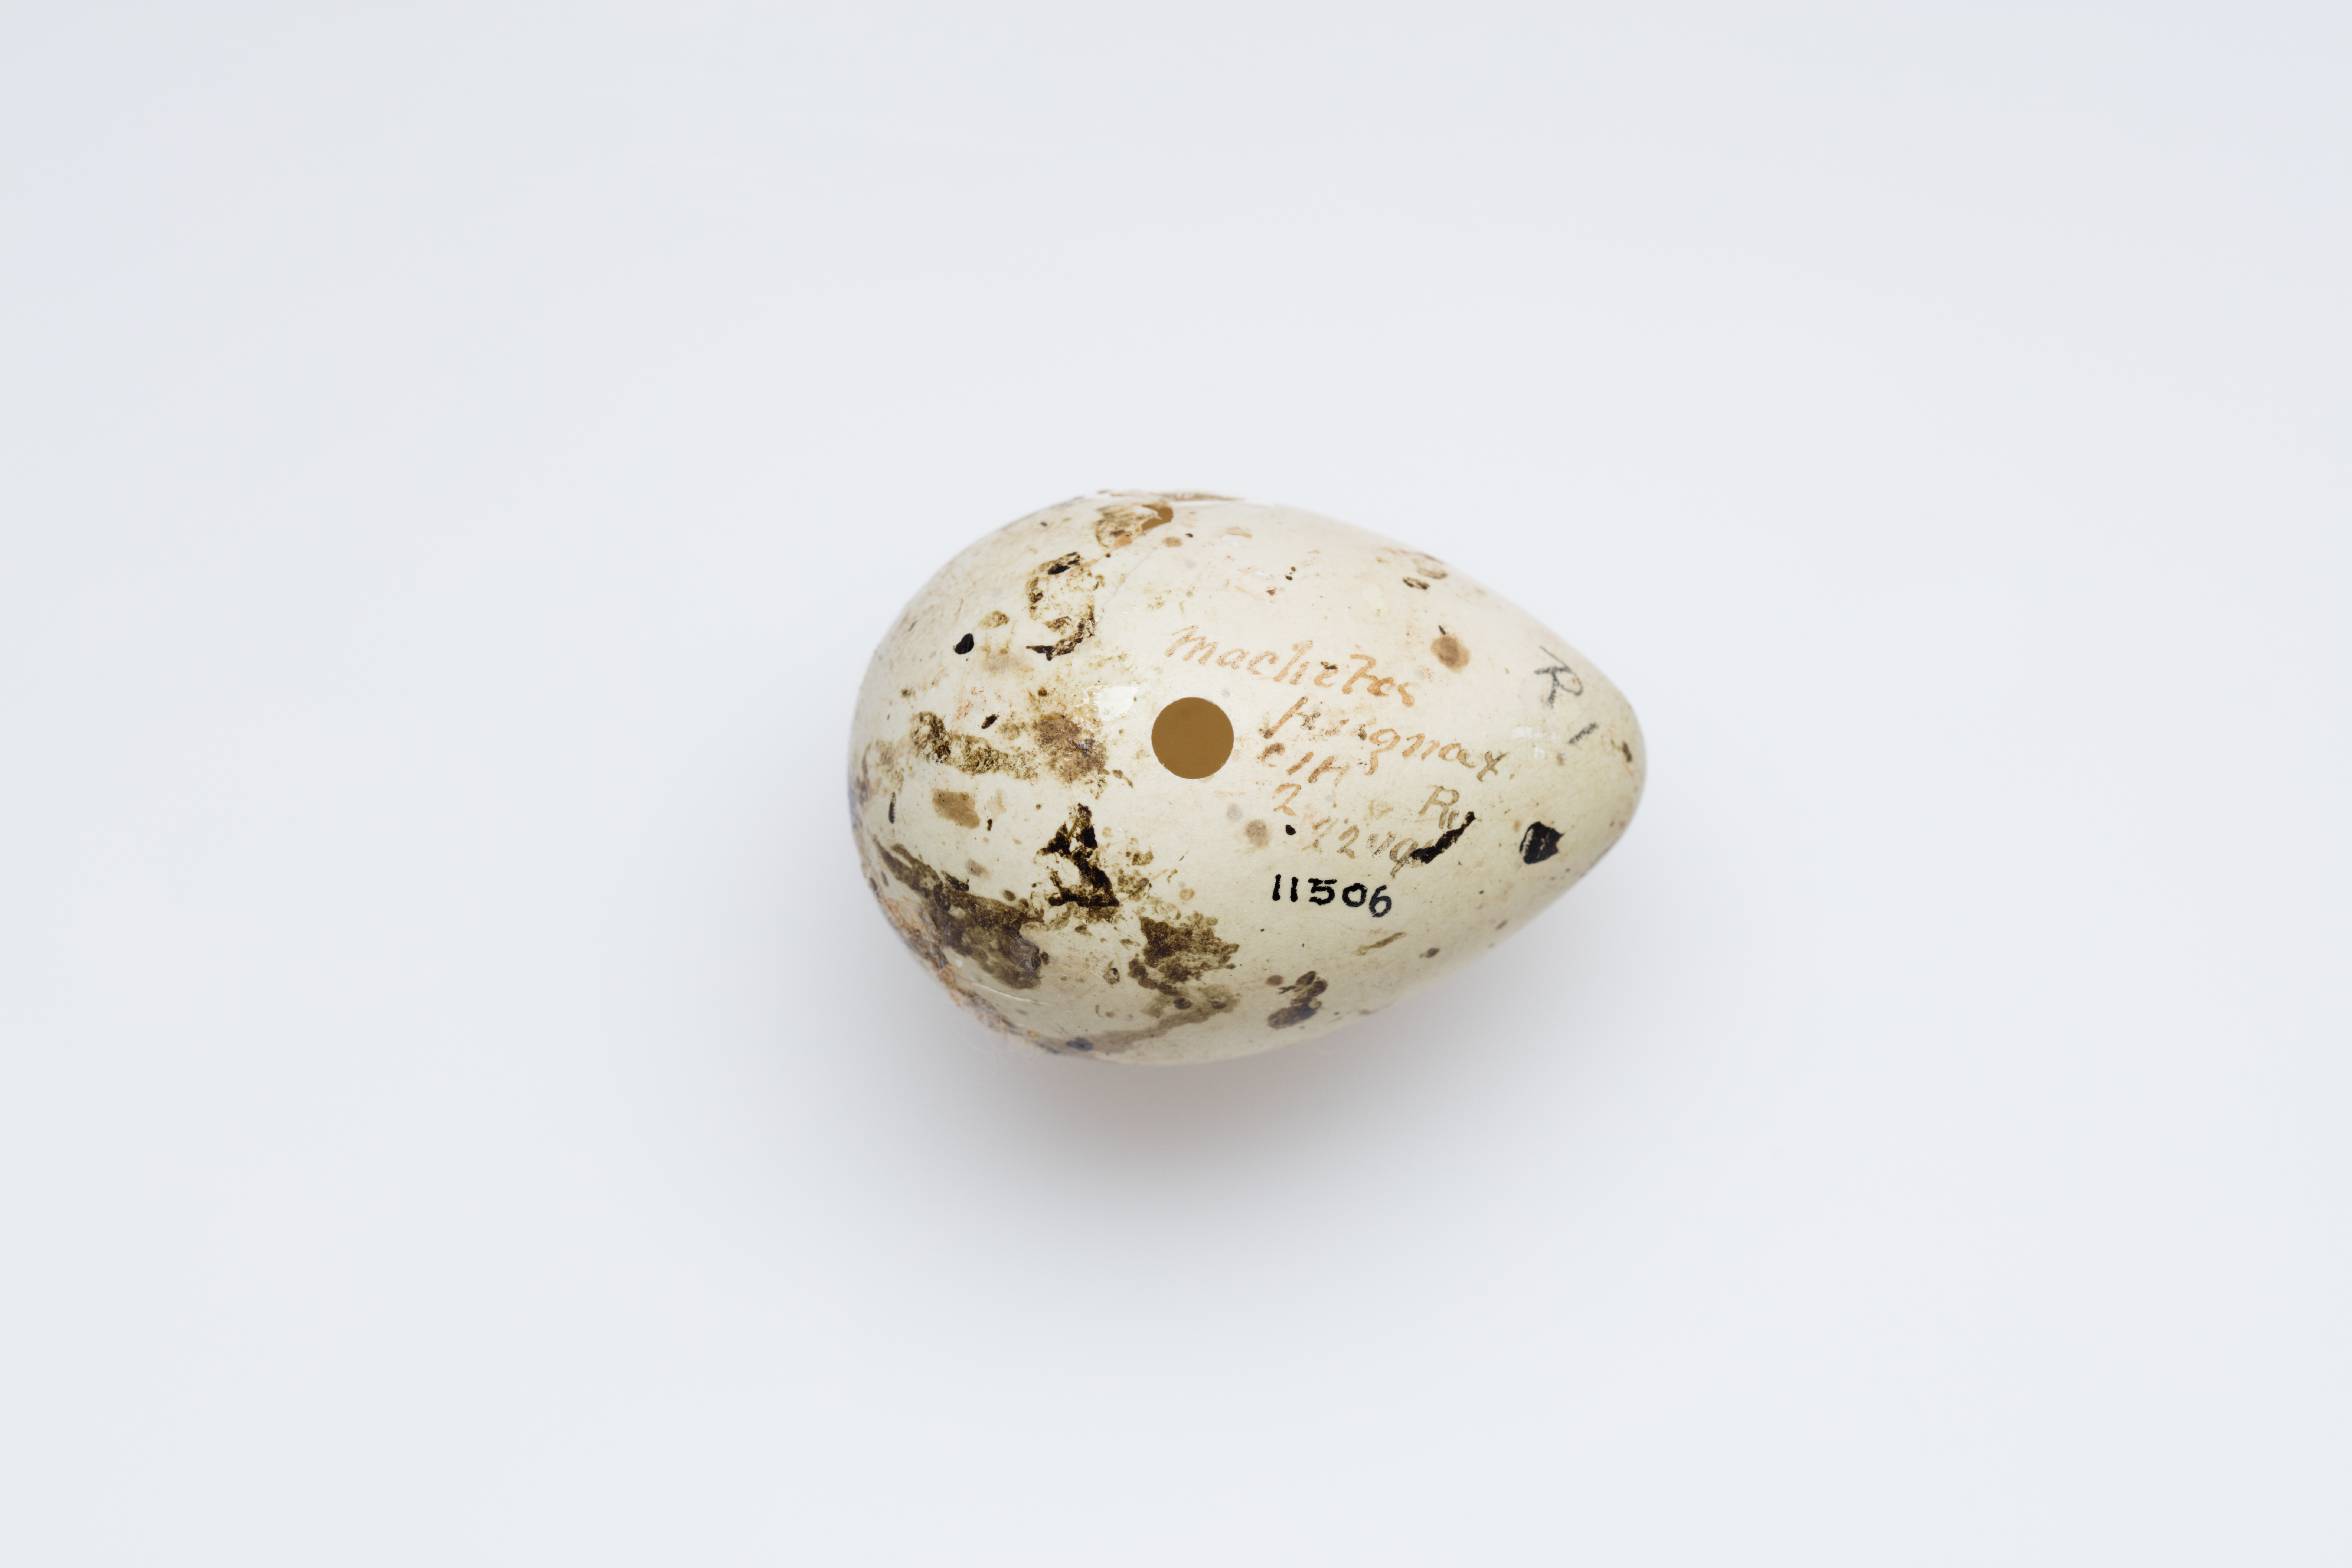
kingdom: Animalia
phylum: Chordata
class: Aves
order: Charadriiformes
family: Scolopacidae
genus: Calidris
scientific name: Calidris pugnax
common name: Ruff
